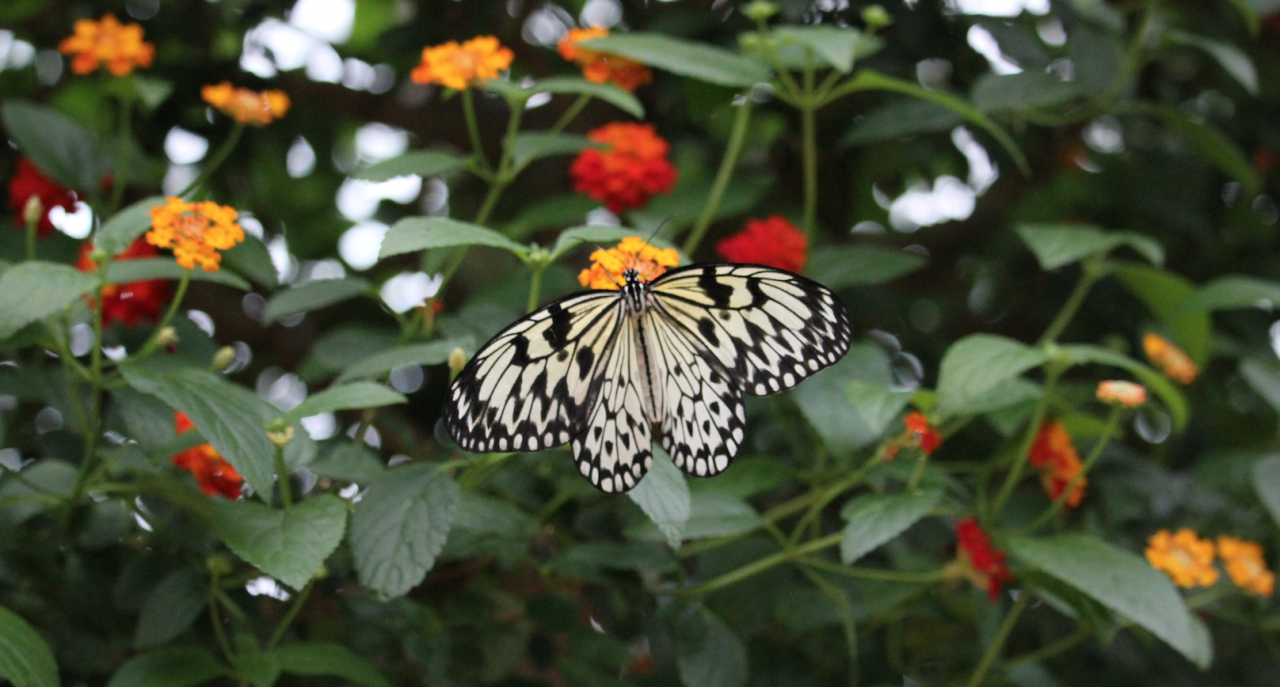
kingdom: Animalia
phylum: Arthropoda
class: Insecta
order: Lepidoptera
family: Nymphalidae
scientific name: Nymphalidae
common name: Brushfoots
